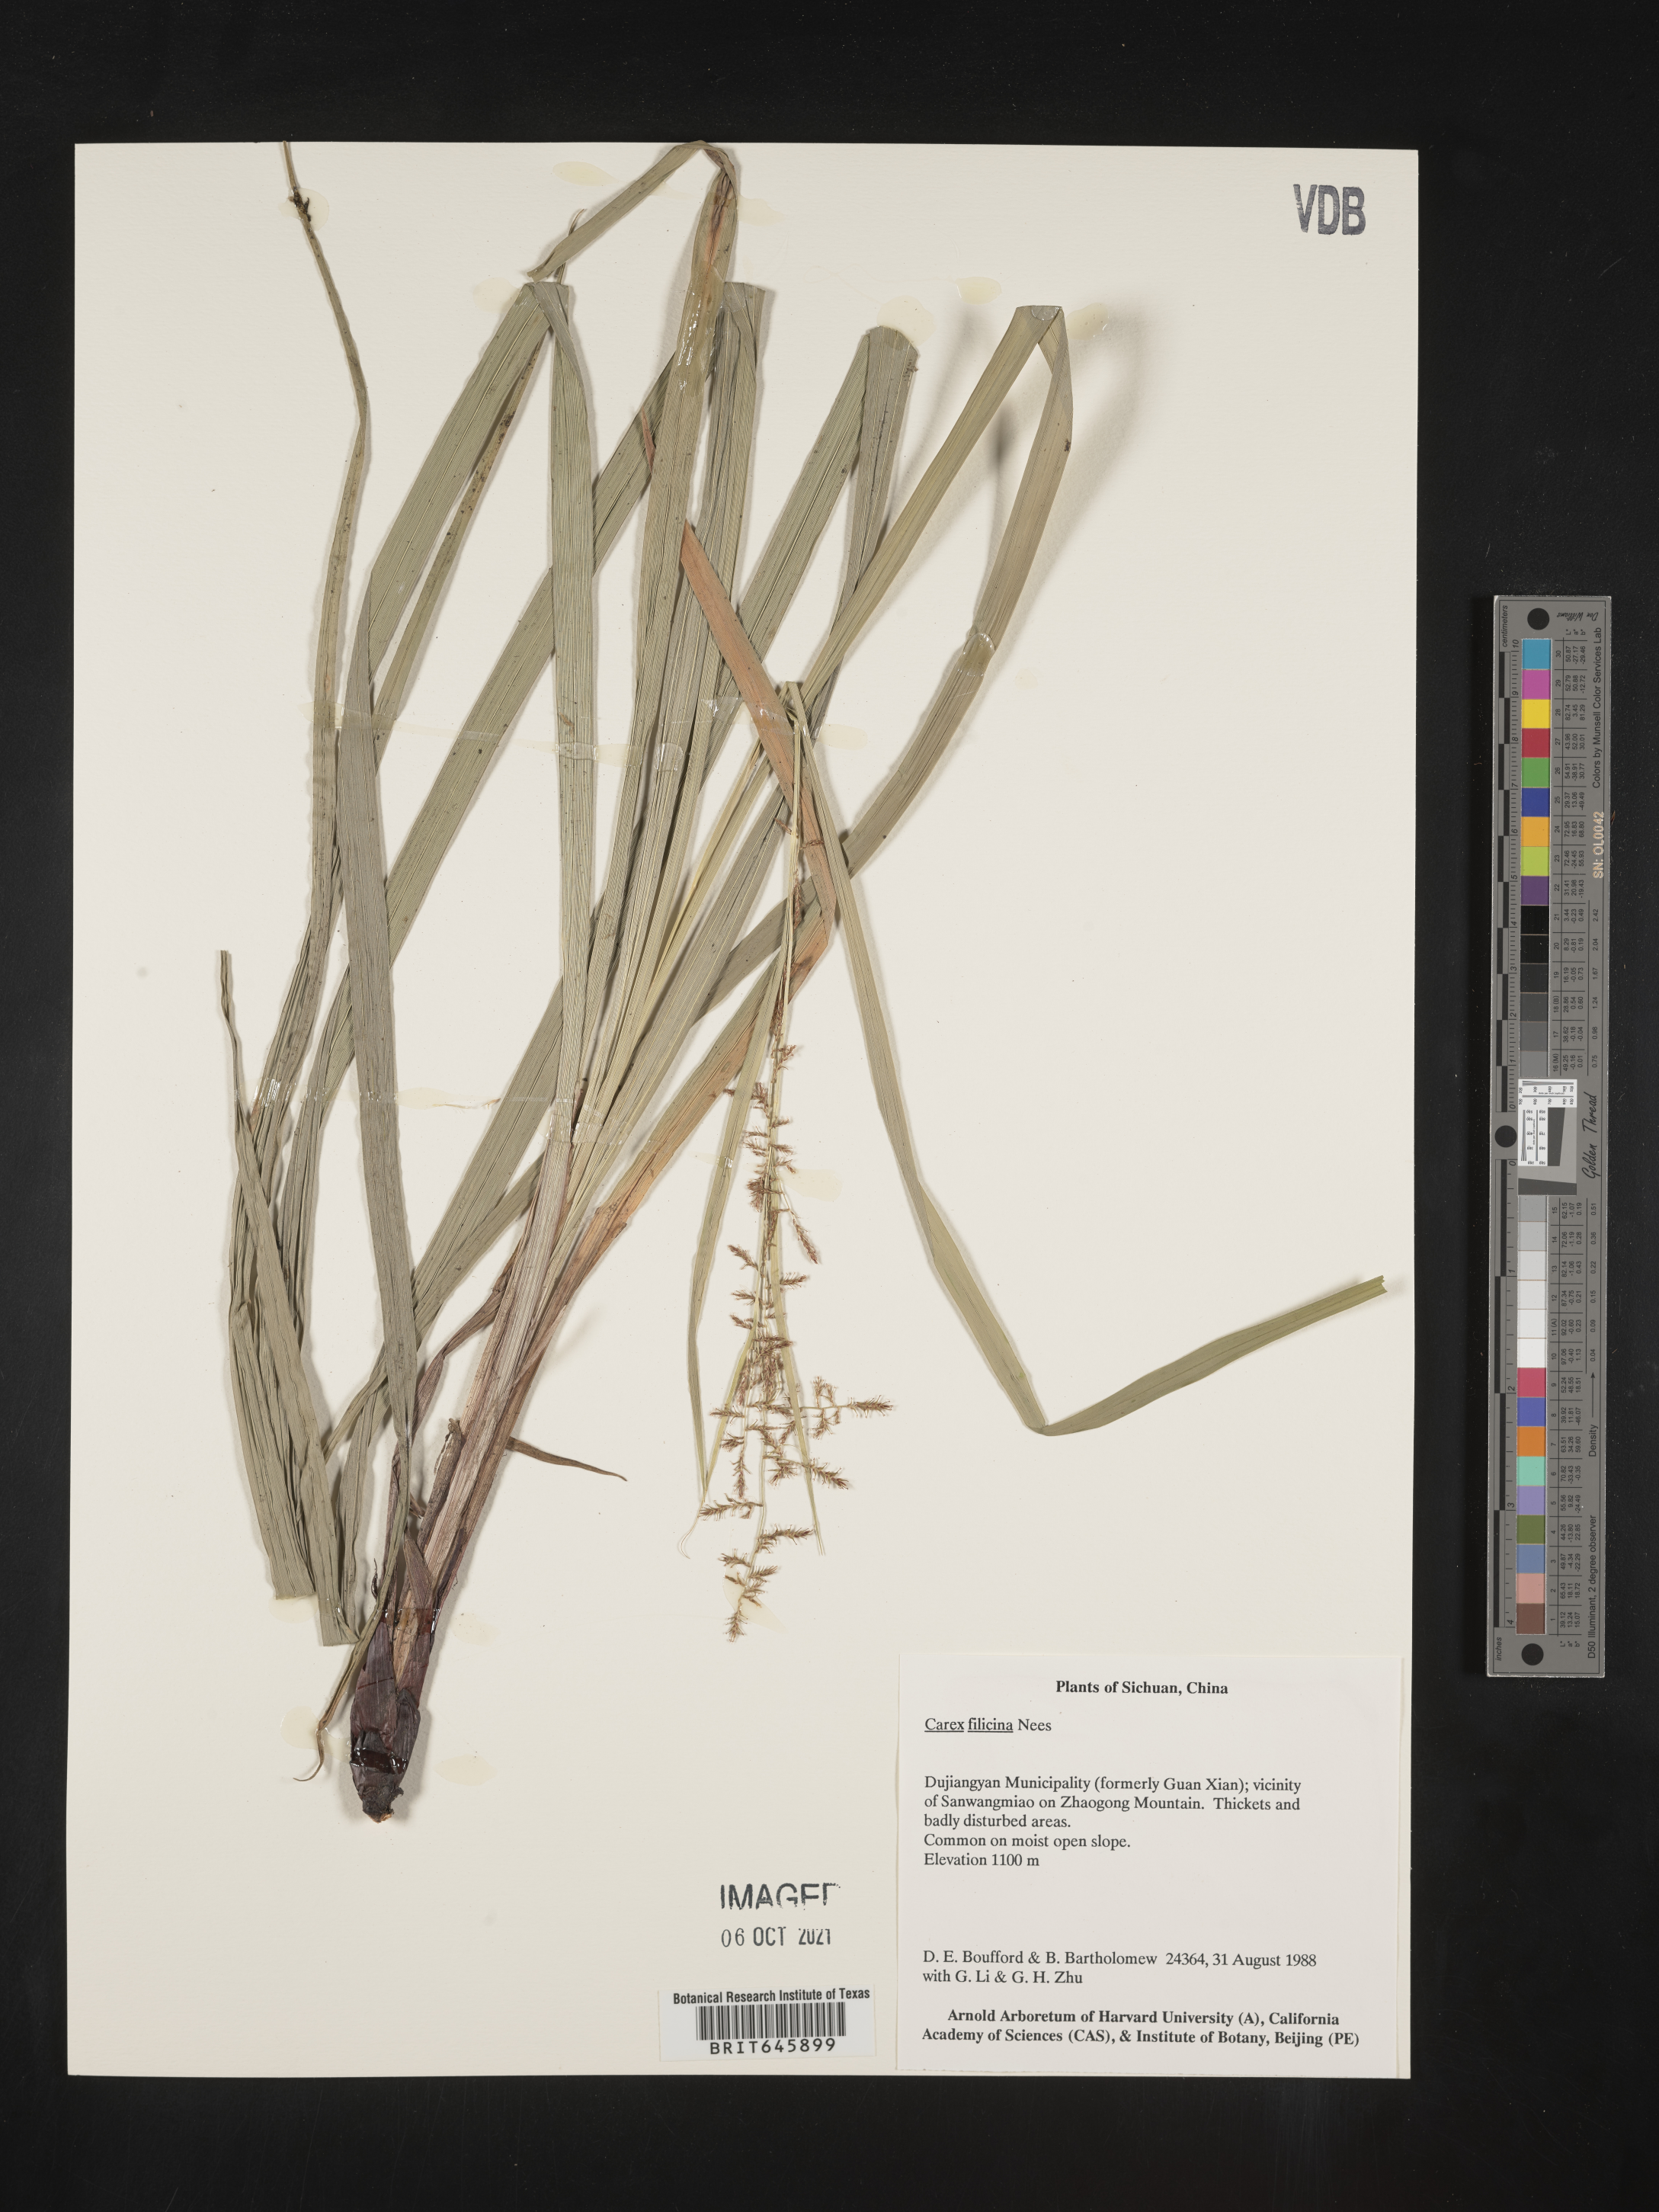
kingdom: Plantae
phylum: Tracheophyta
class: Liliopsida
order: Poales
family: Cyperaceae
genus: Carex
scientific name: Carex filicina
